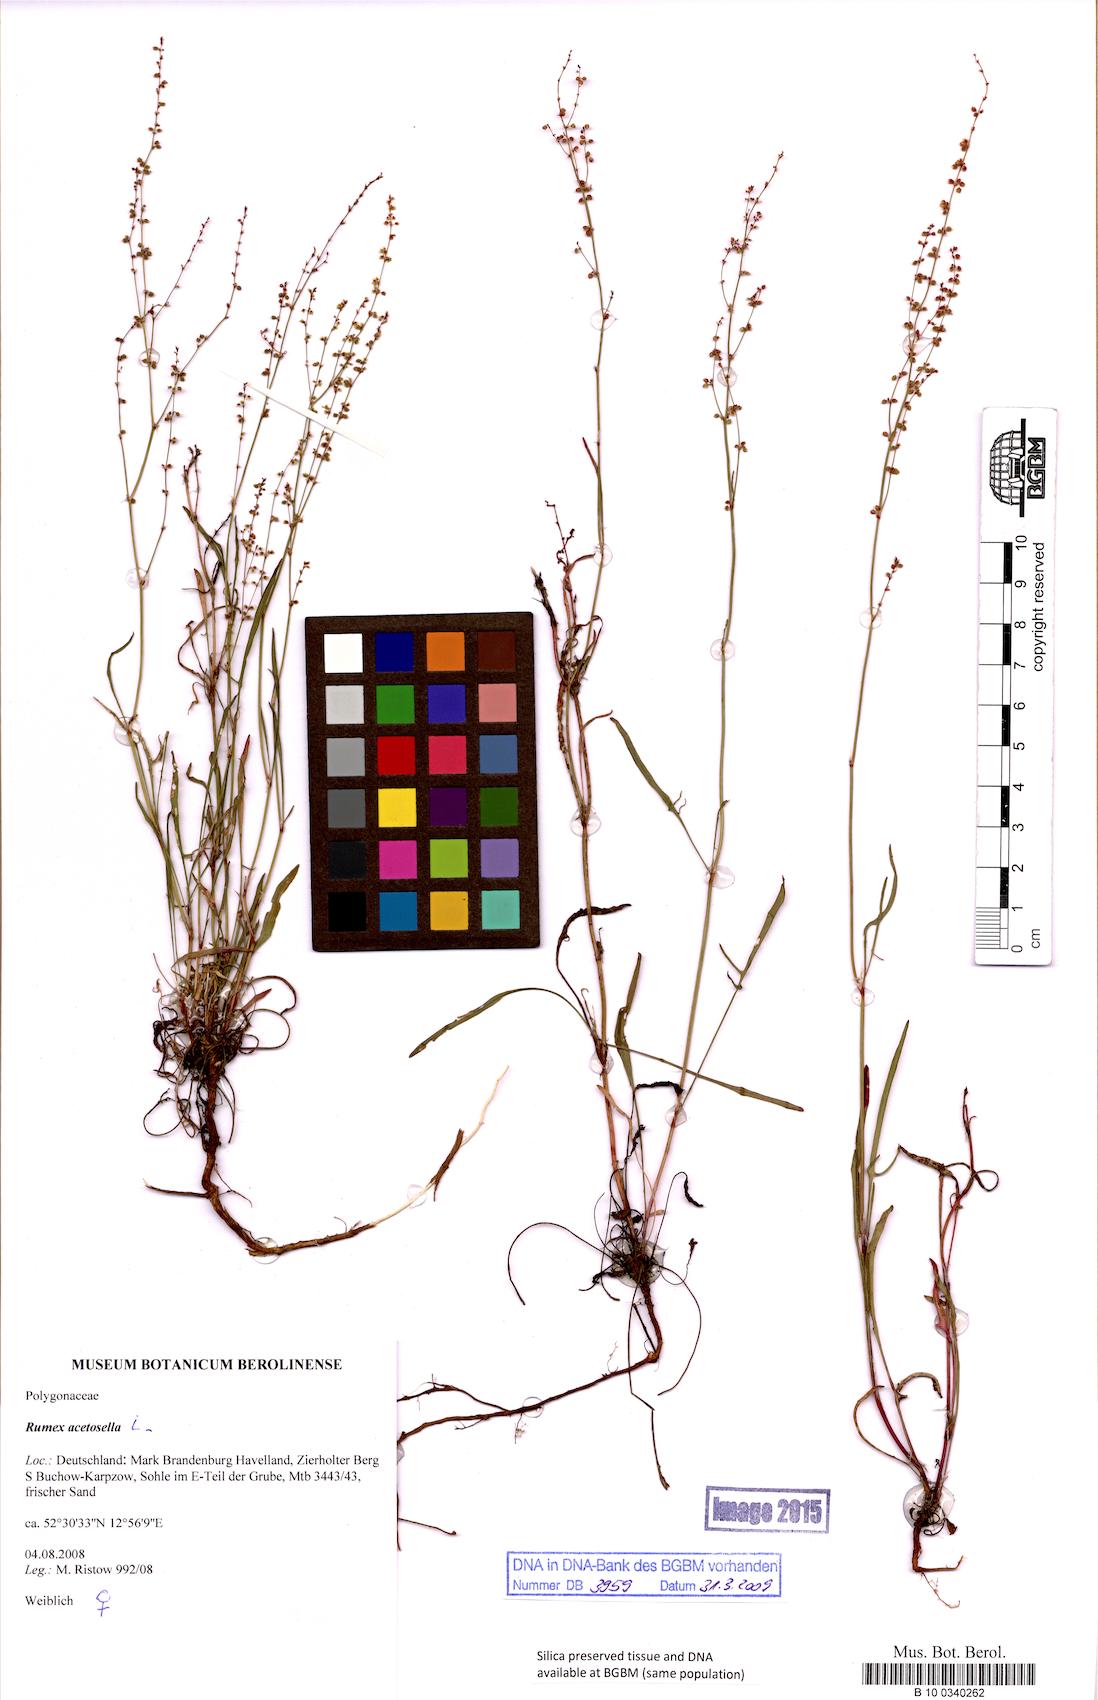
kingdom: Plantae
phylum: Tracheophyta
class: Magnoliopsida
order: Caryophyllales
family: Polygonaceae
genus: Rumex
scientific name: Rumex acetosella
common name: Common sheep sorrel
